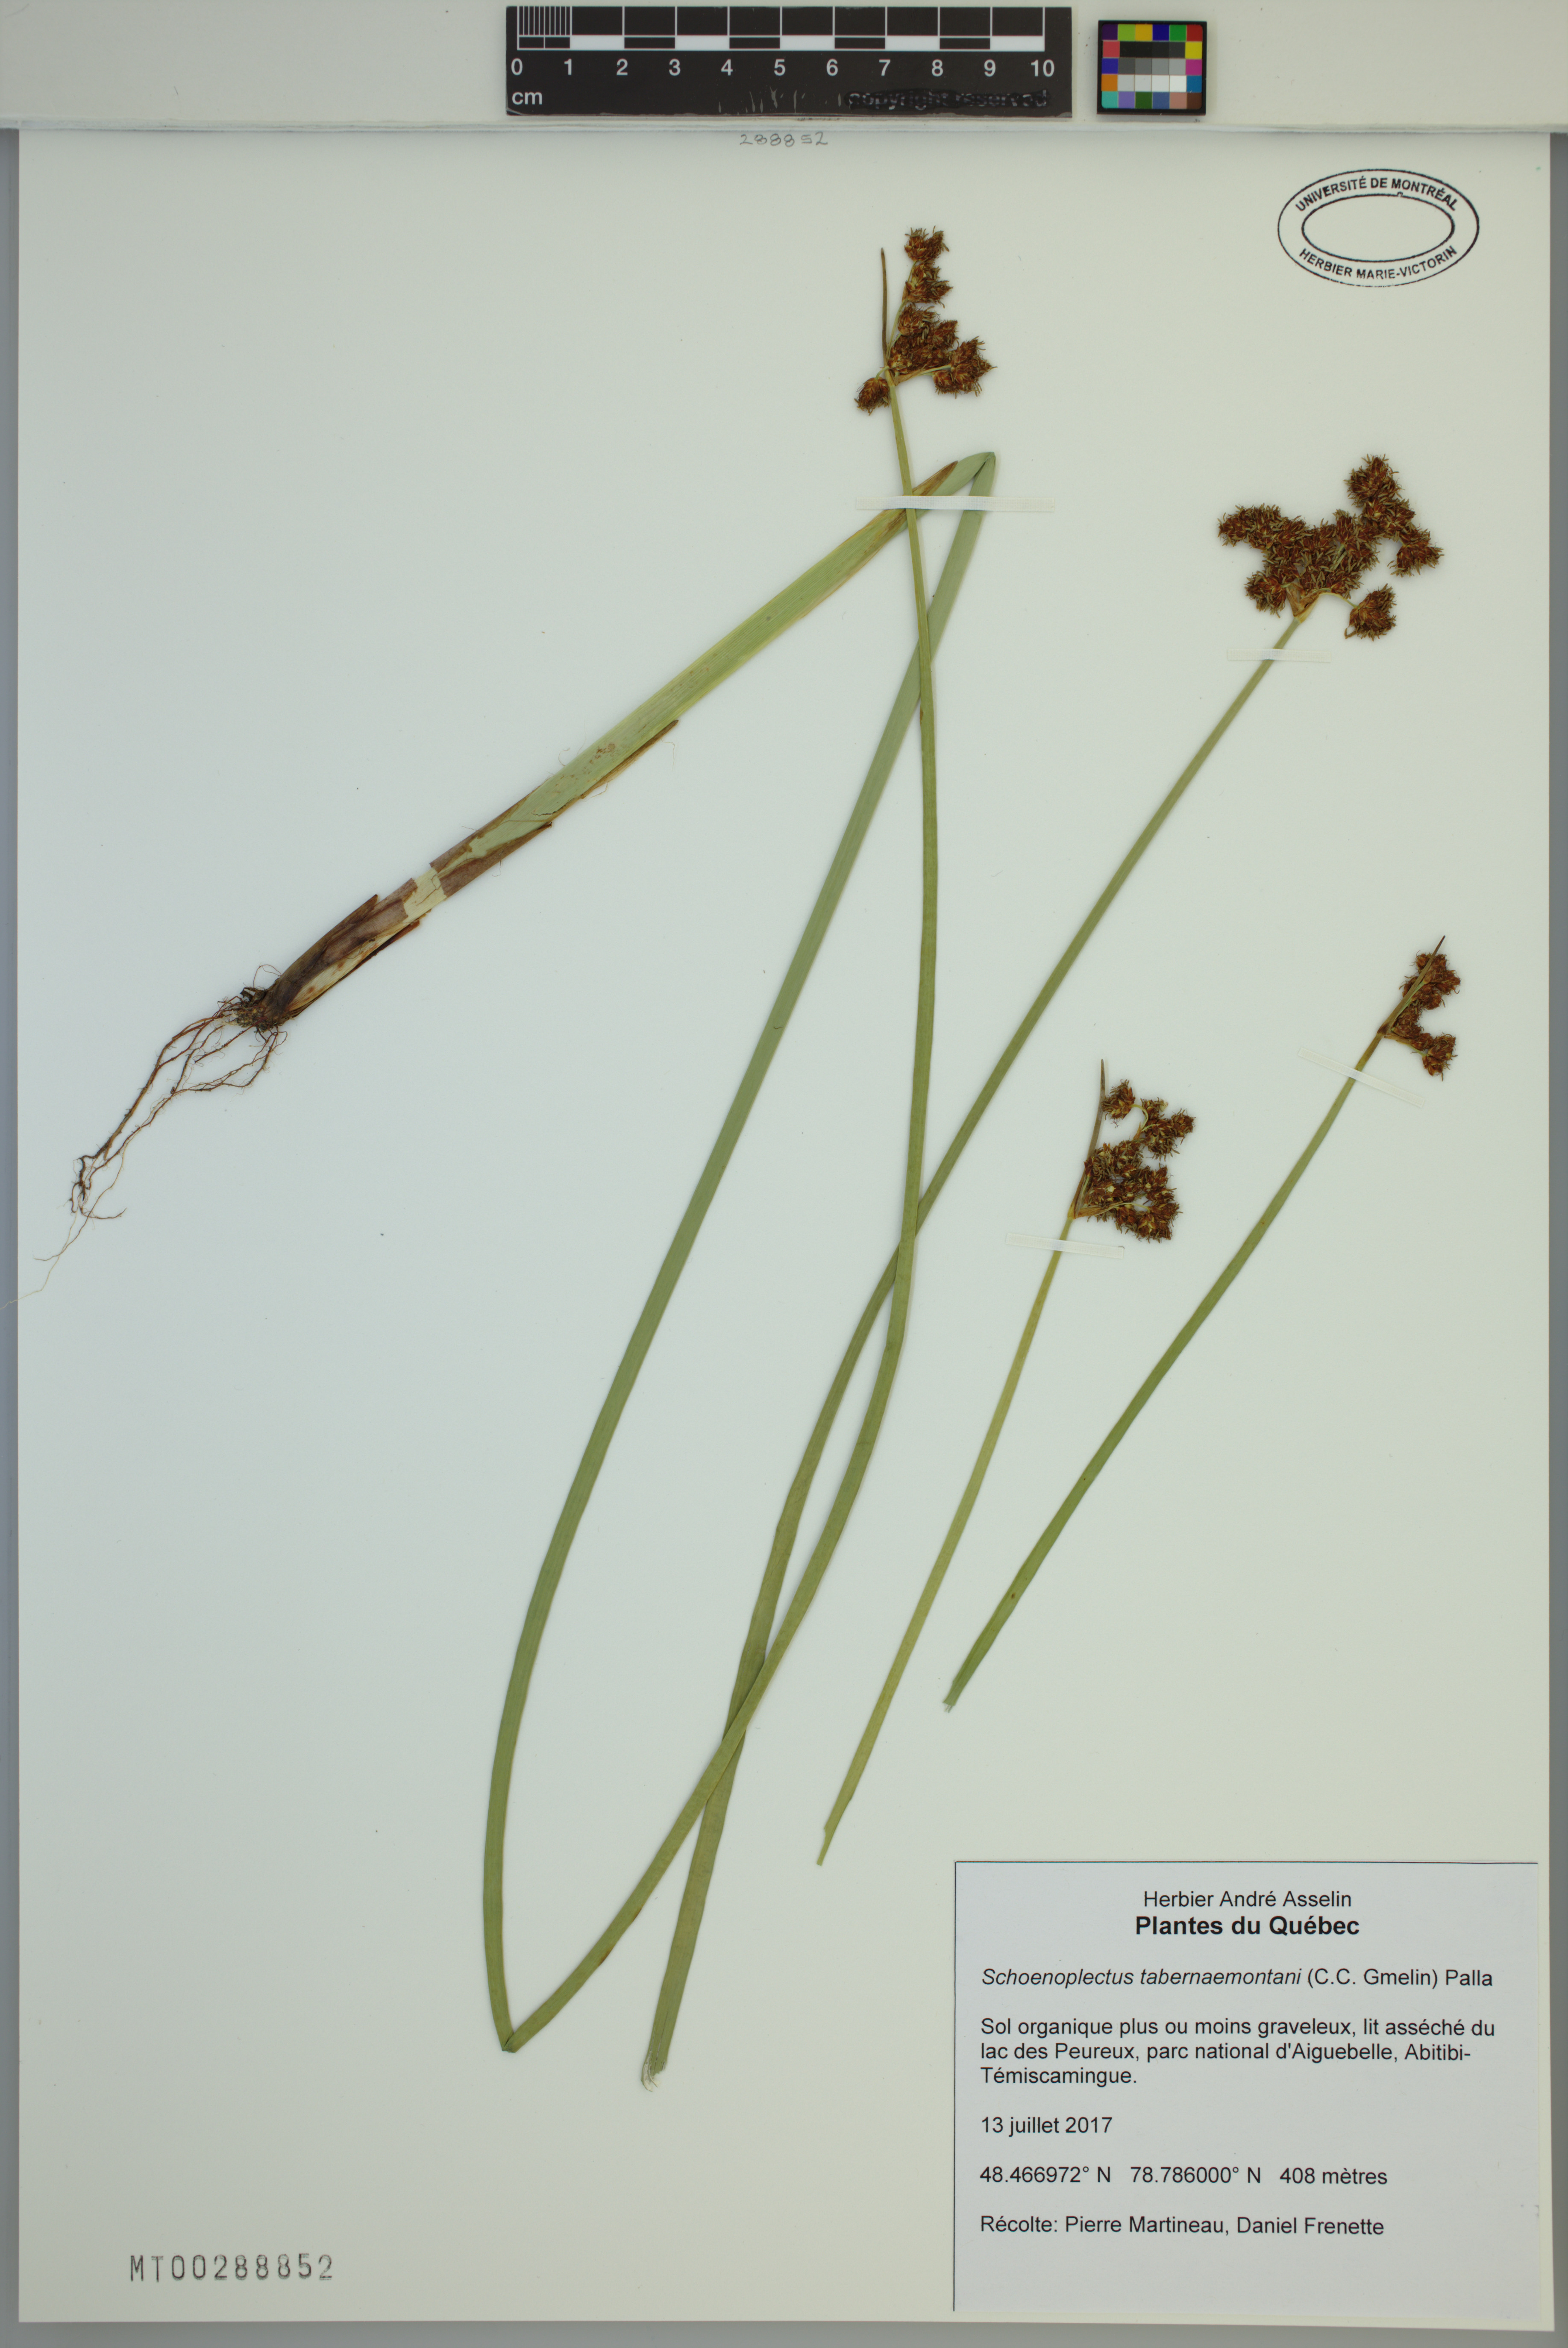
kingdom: Plantae
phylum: Tracheophyta
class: Liliopsida
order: Poales
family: Cyperaceae
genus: Schoenoplectus
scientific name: Schoenoplectus tabernaemontani
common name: Grey club-rush
